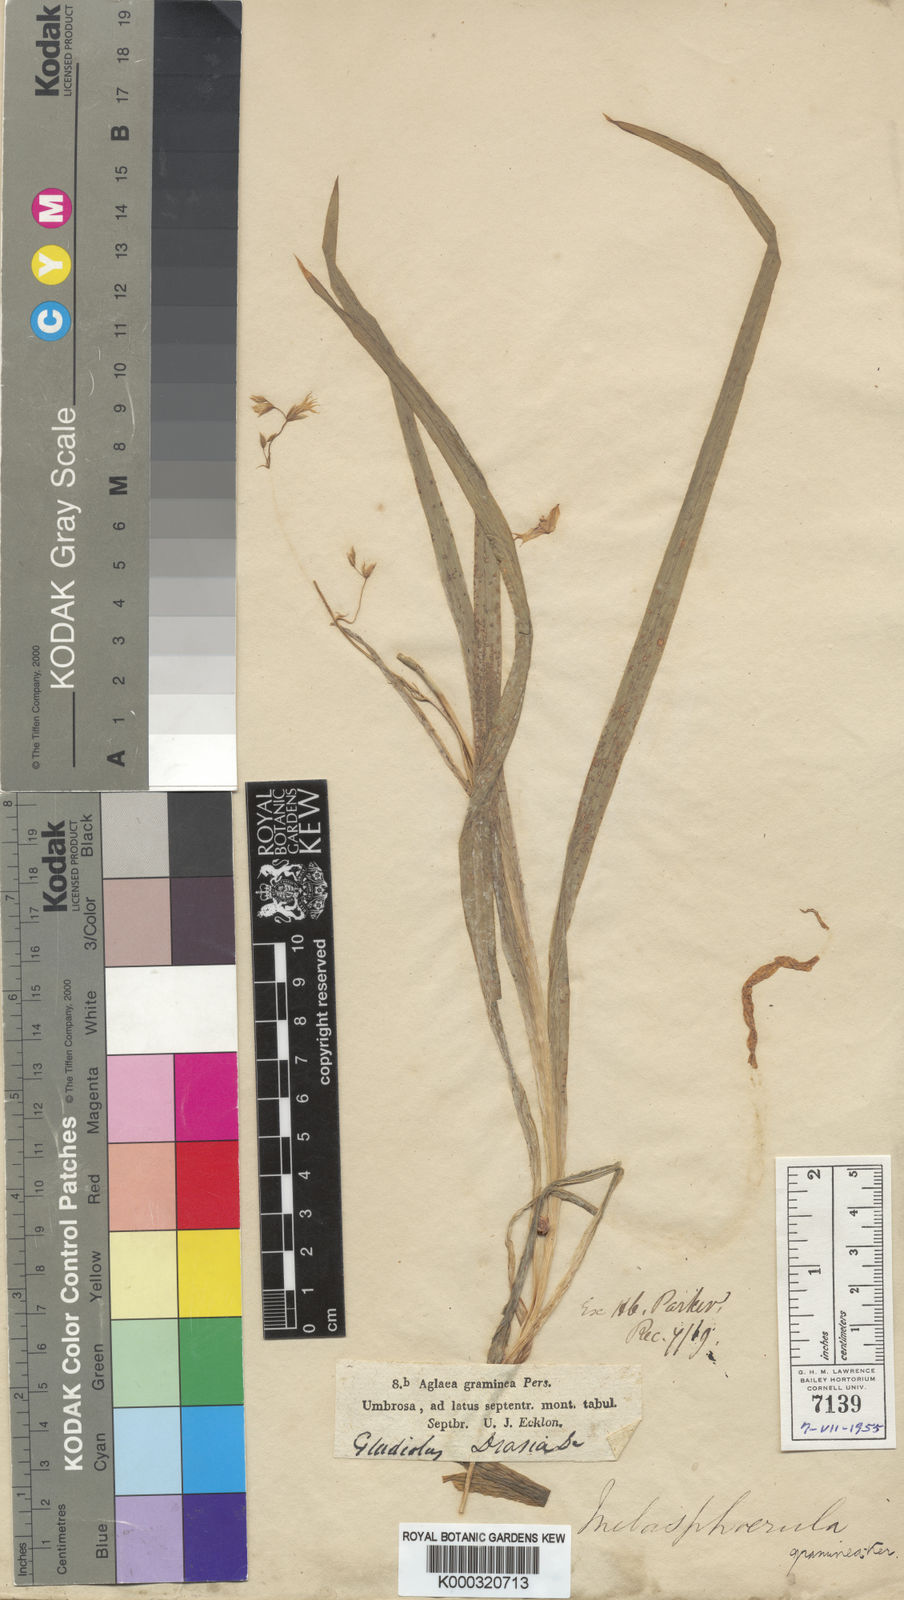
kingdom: Plantae
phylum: Tracheophyta
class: Liliopsida
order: Asparagales
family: Iridaceae
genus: Melasphaerula
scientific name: Melasphaerula graminea
